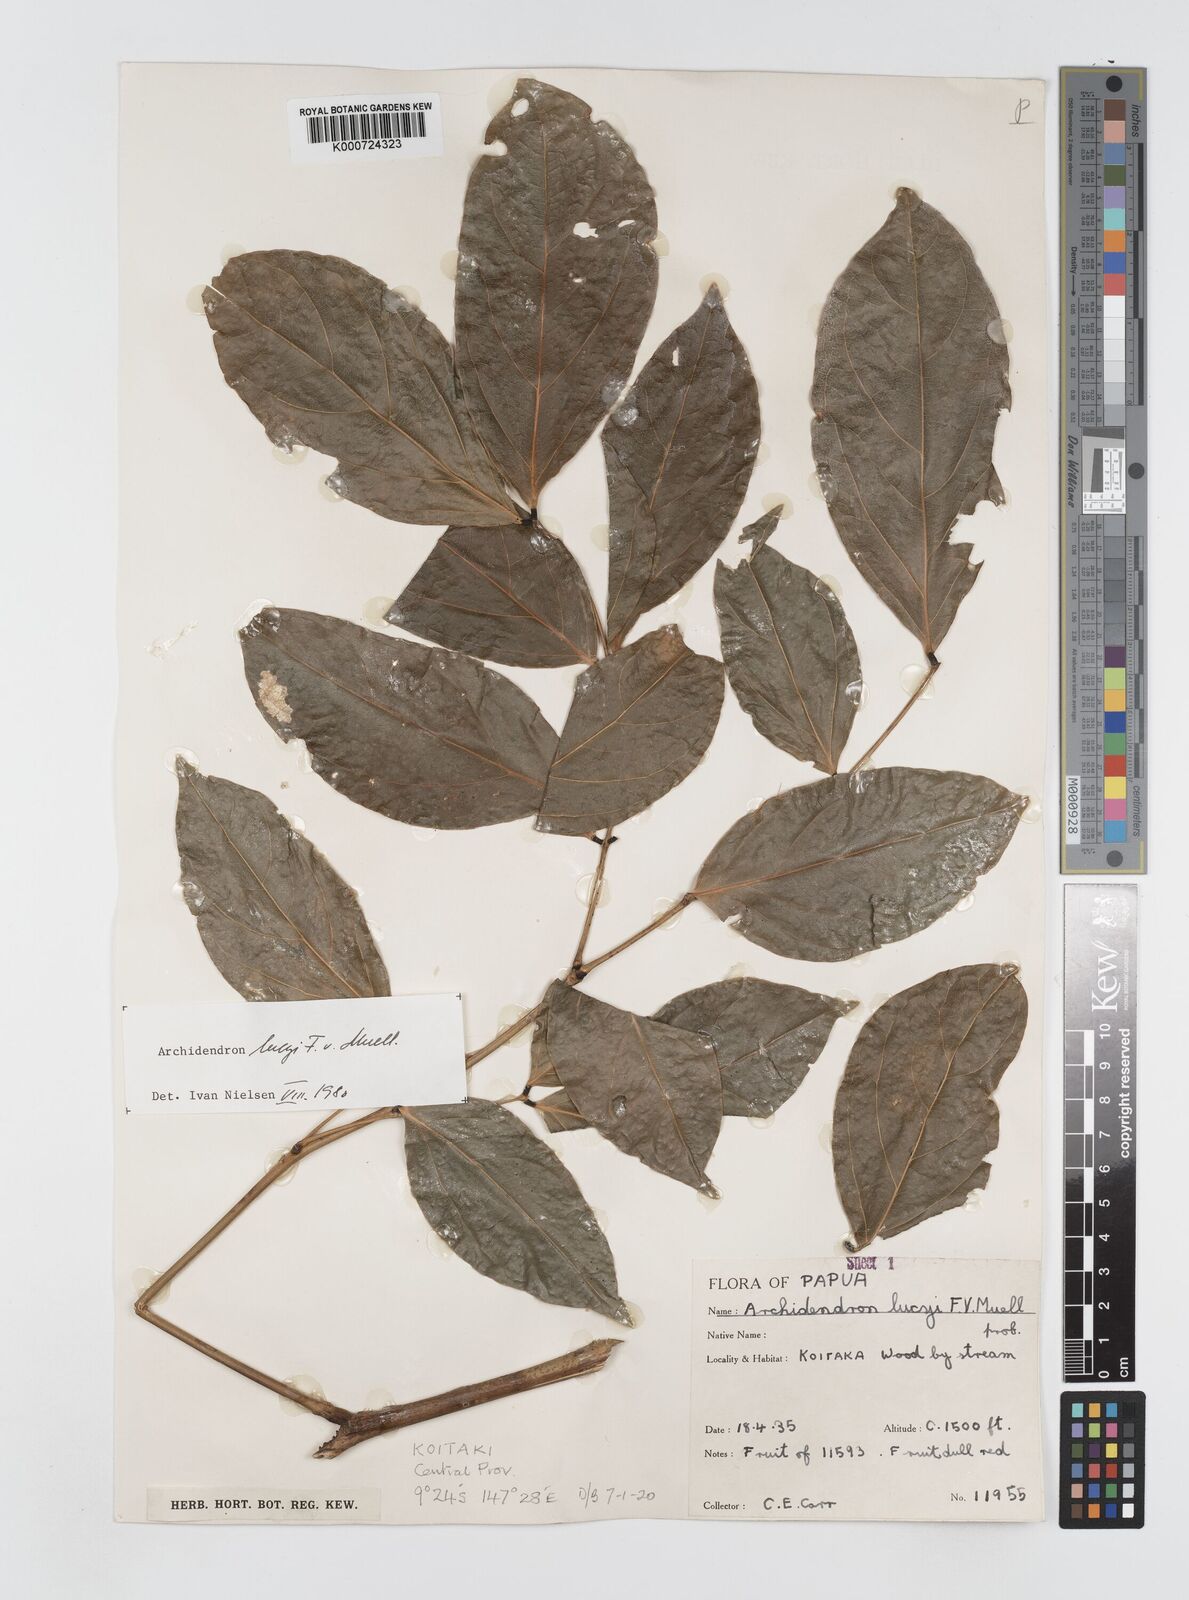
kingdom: Plantae
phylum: Tracheophyta
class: Magnoliopsida
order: Fabales
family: Fabaceae
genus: Archidendron
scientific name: Archidendron lucyi
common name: Scarlet bean
